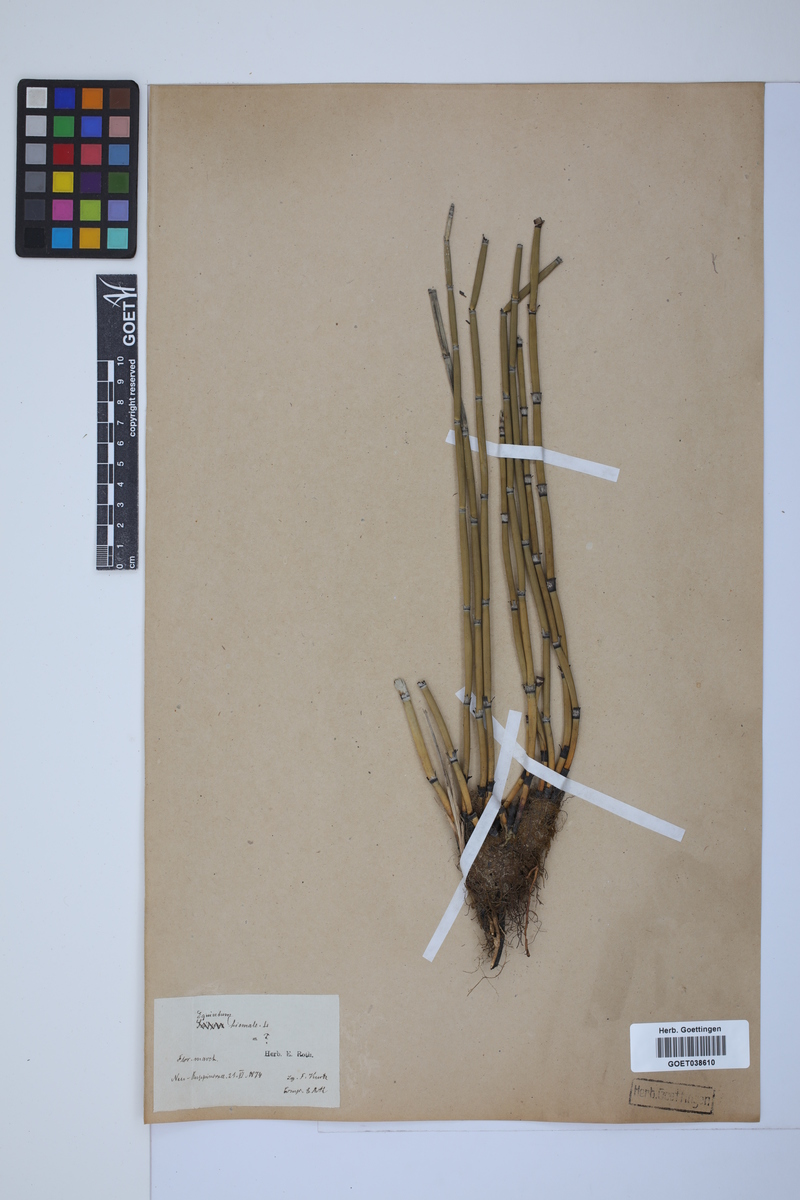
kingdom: Plantae
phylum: Tracheophyta
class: Polypodiopsida
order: Equisetales
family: Equisetaceae
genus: Equisetum
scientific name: Equisetum hyemale
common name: Rough horsetail
